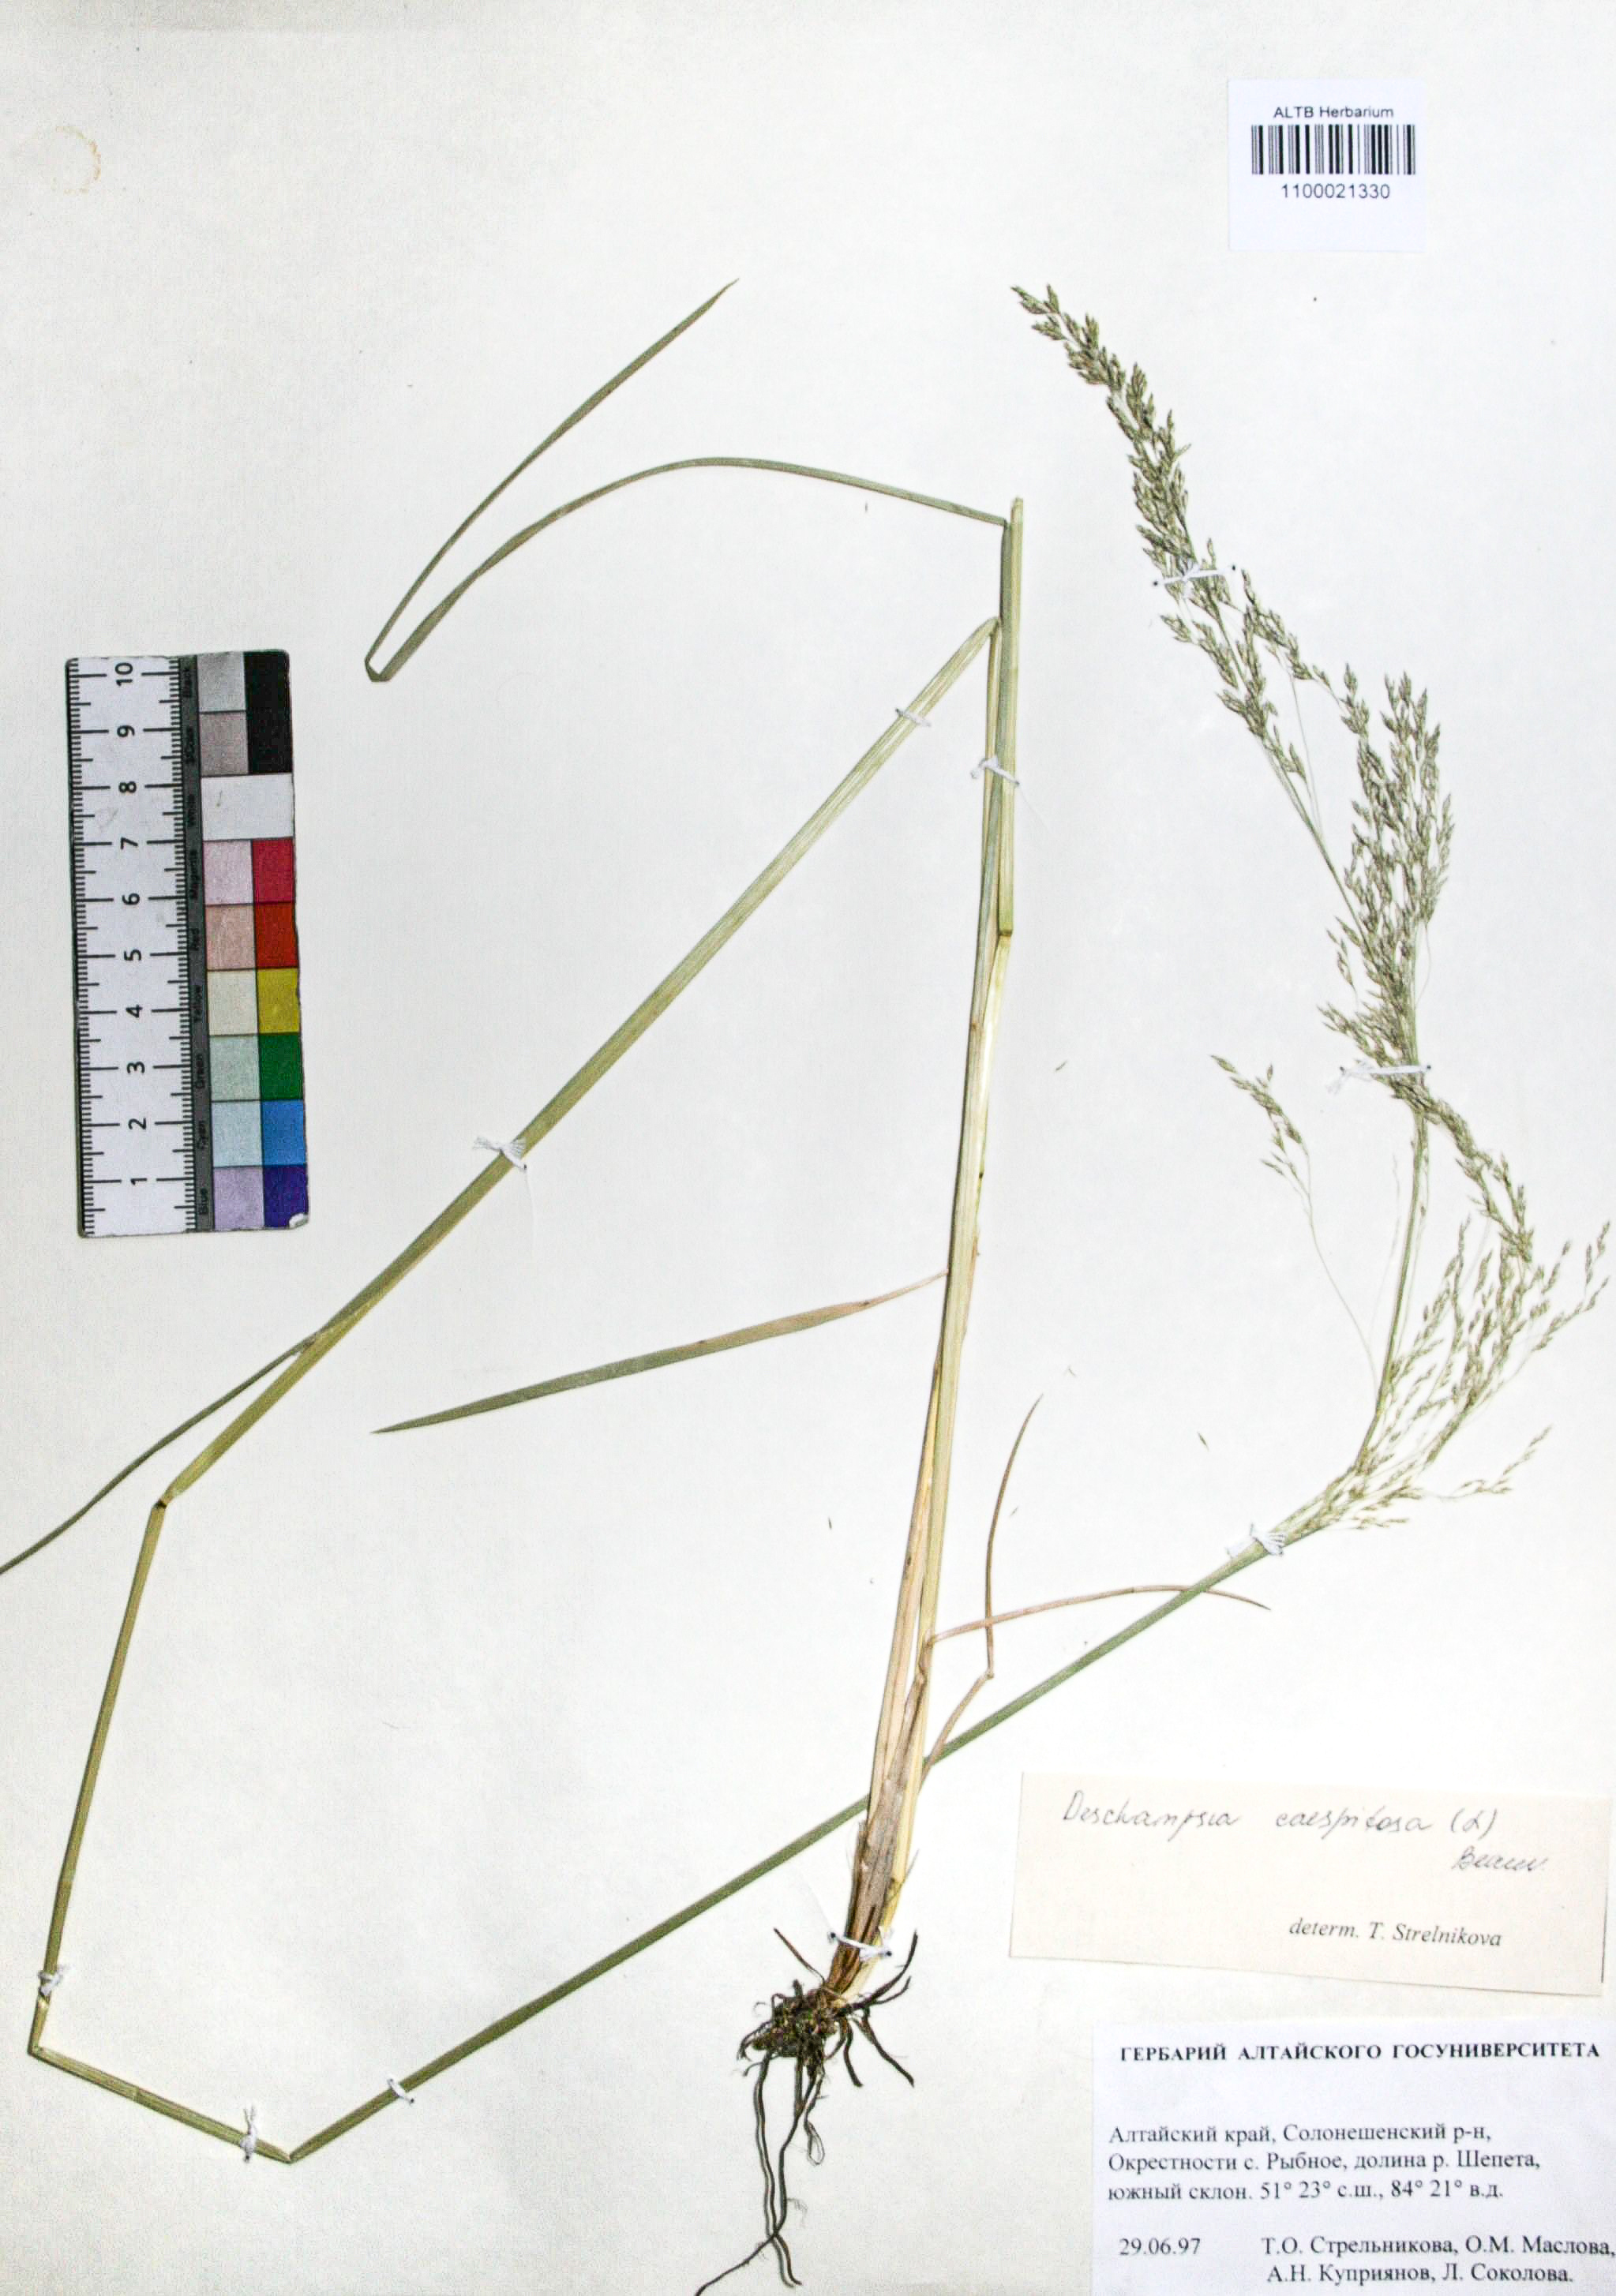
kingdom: Plantae
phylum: Tracheophyta
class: Liliopsida
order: Poales
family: Poaceae
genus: Deschampsia
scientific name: Deschampsia cespitosa
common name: Tufted hair-grass
